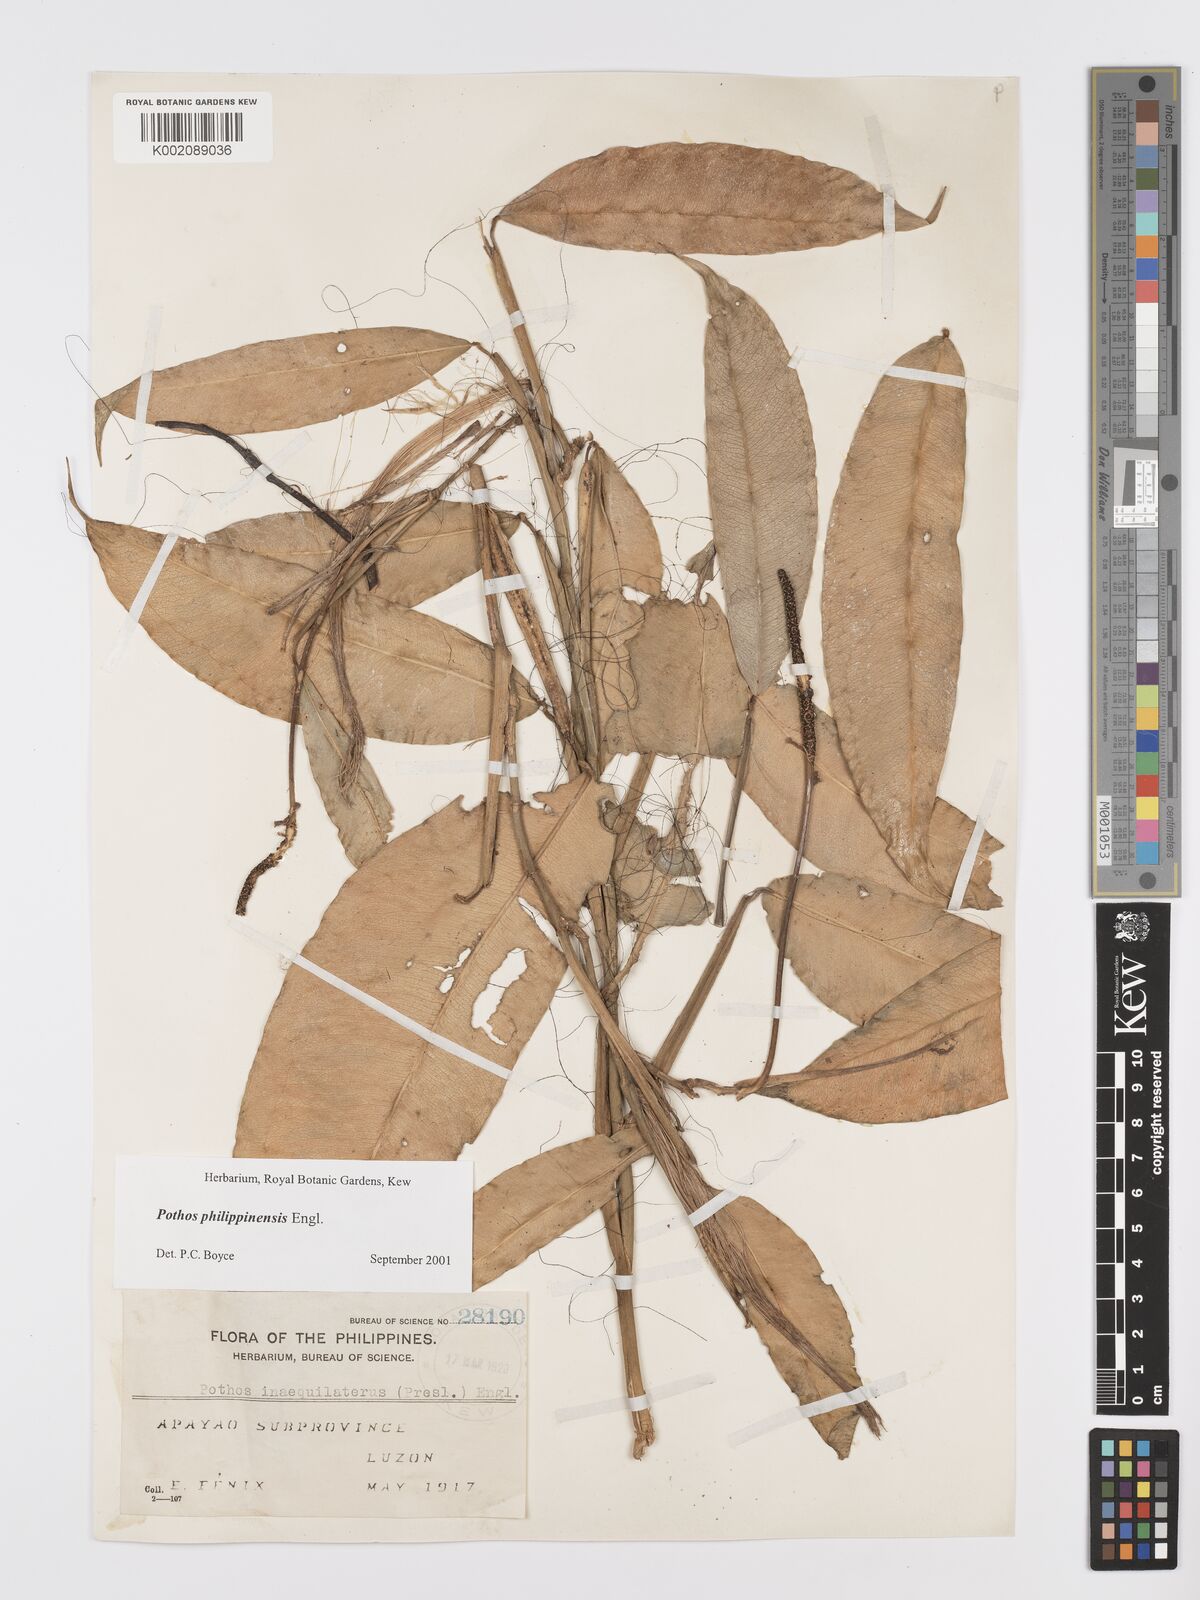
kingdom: Plantae
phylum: Tracheophyta
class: Liliopsida
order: Alismatales
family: Araceae
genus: Pothos
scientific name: Pothos philippinensis
